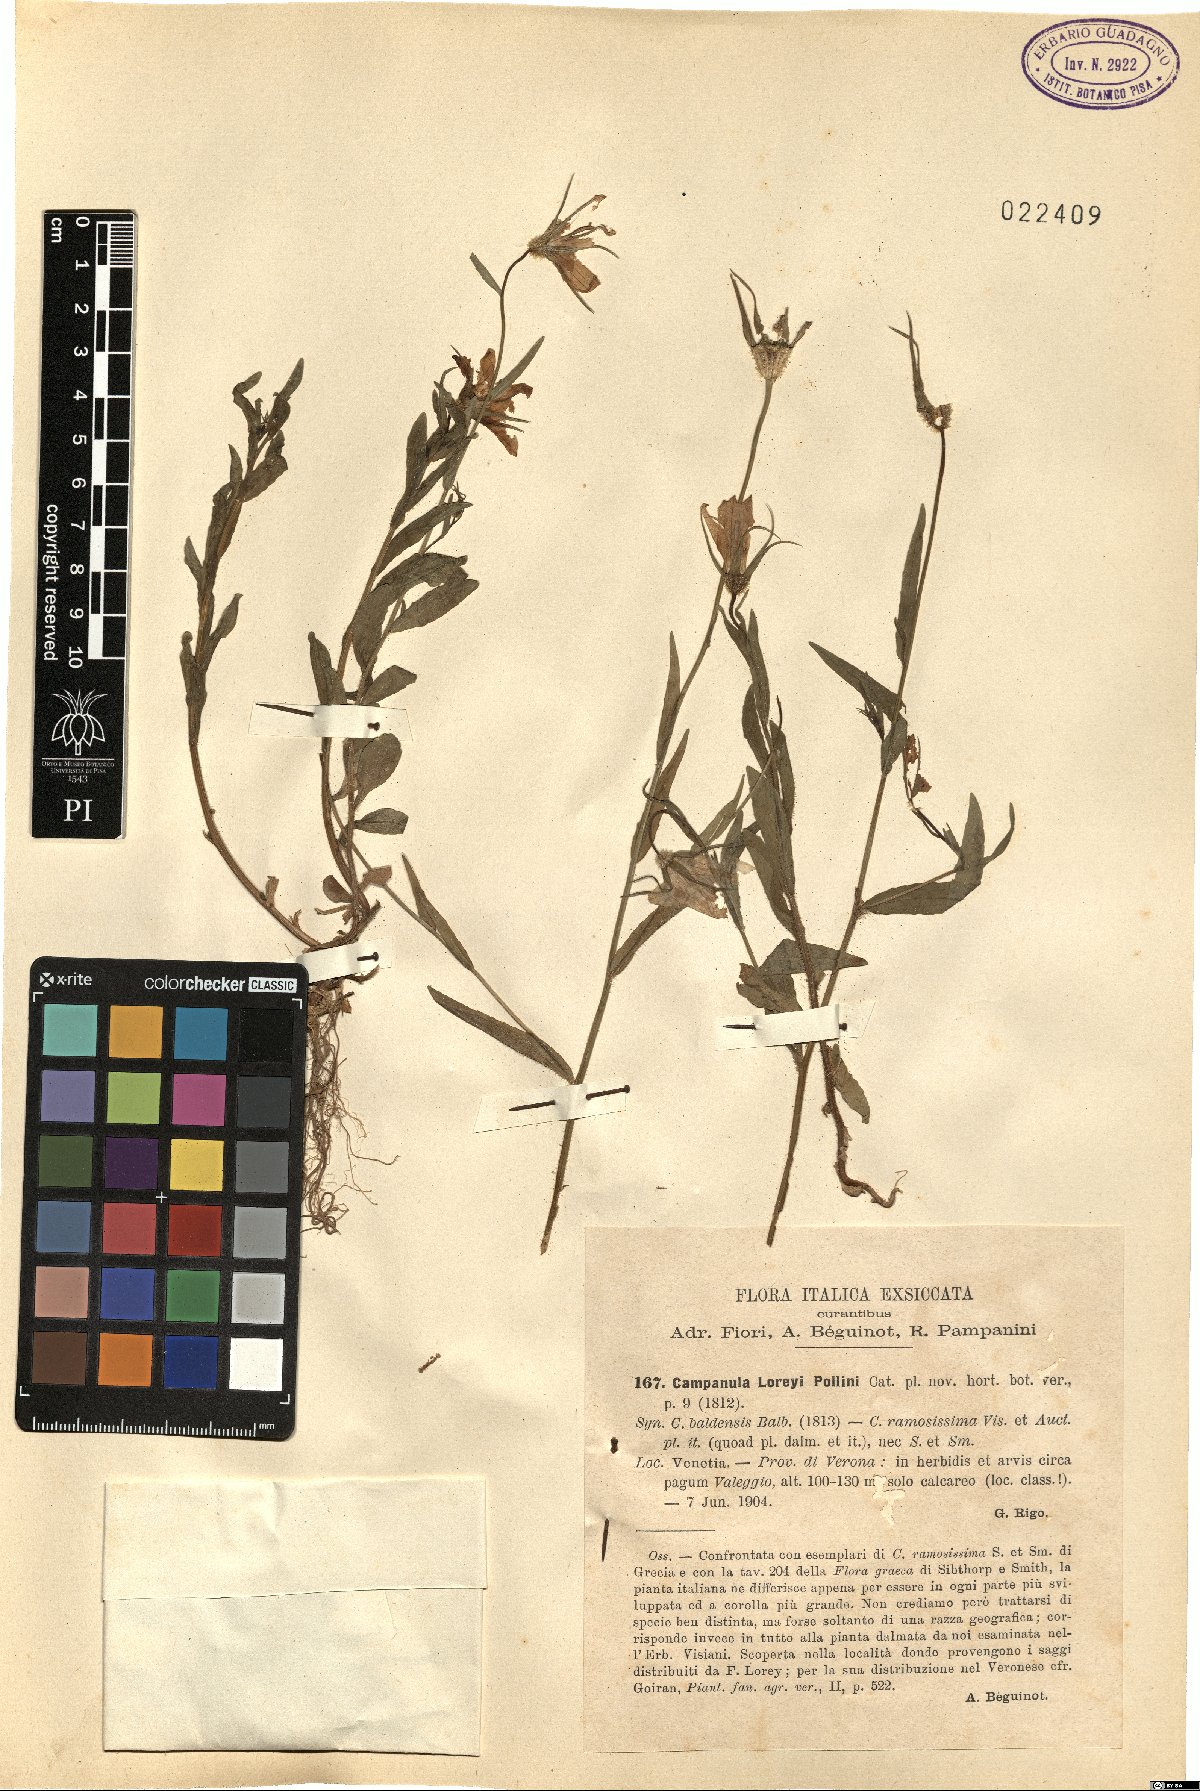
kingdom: Plantae
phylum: Tracheophyta
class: Magnoliopsida
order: Asterales
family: Campanulaceae
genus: Campanula
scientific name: Campanula ramosissima
